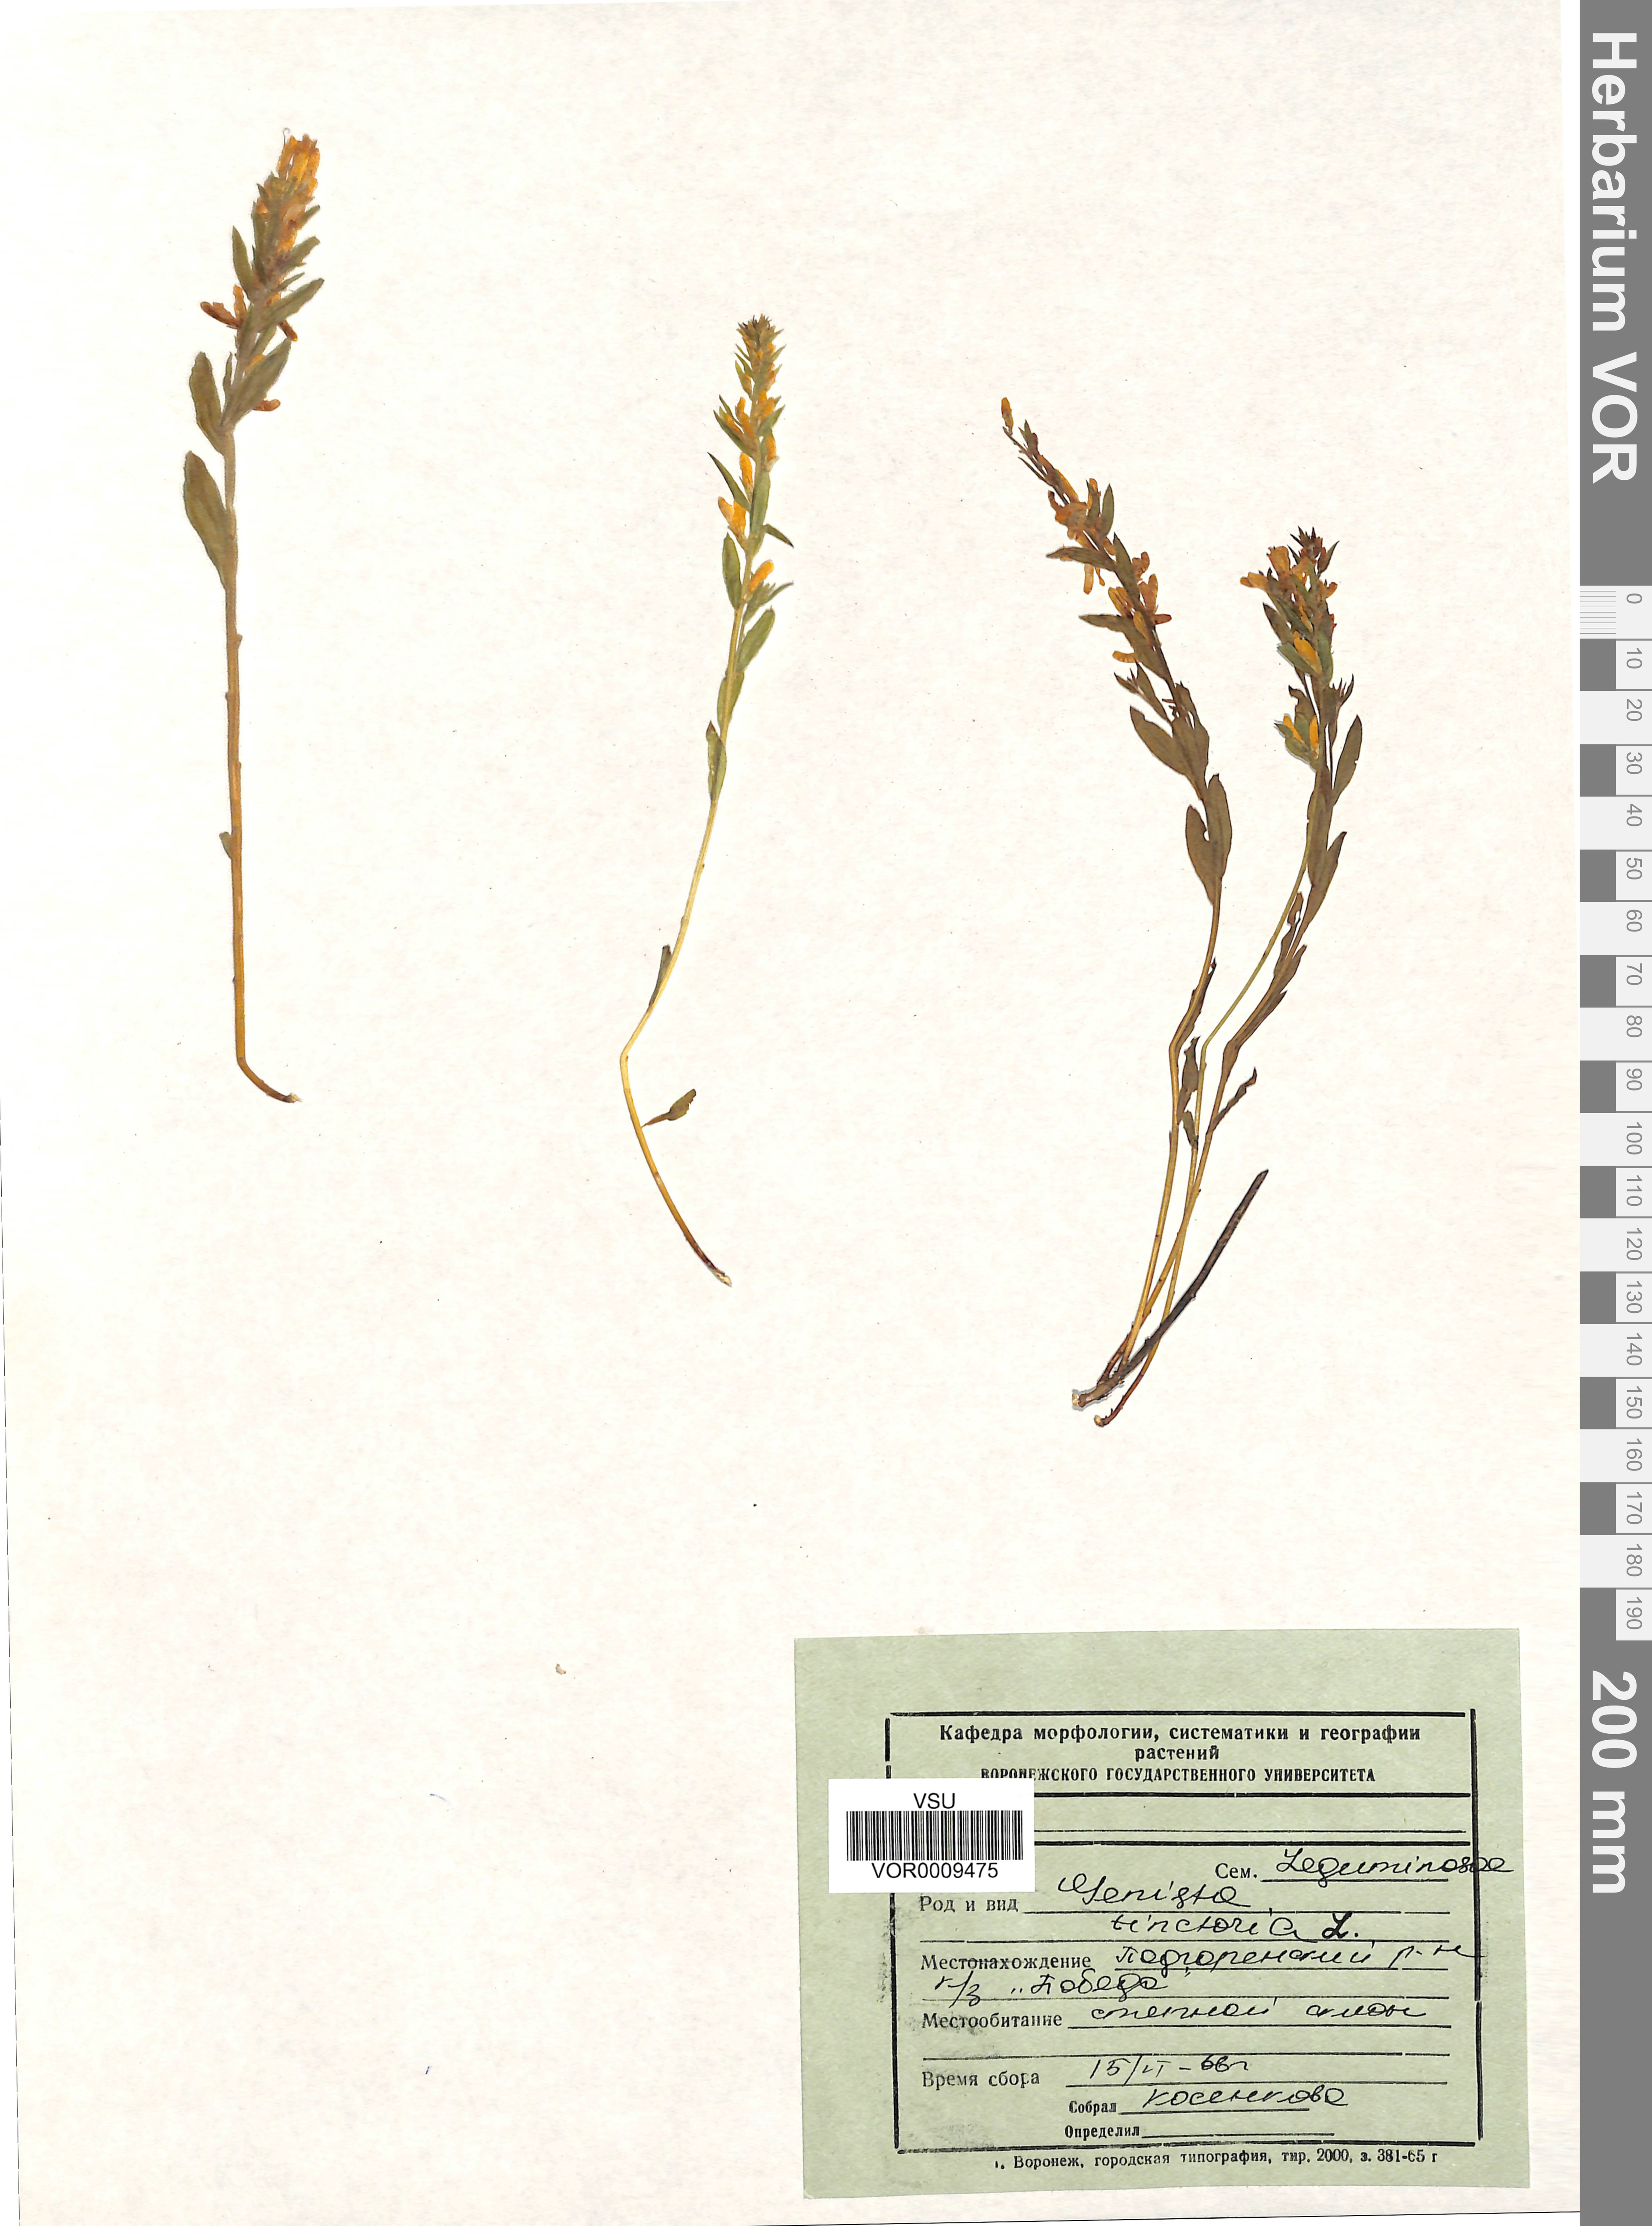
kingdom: Plantae
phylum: Tracheophyta
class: Magnoliopsida
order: Fabales
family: Fabaceae
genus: Genista
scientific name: Genista tinctoria
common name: Dyer's greenweed
